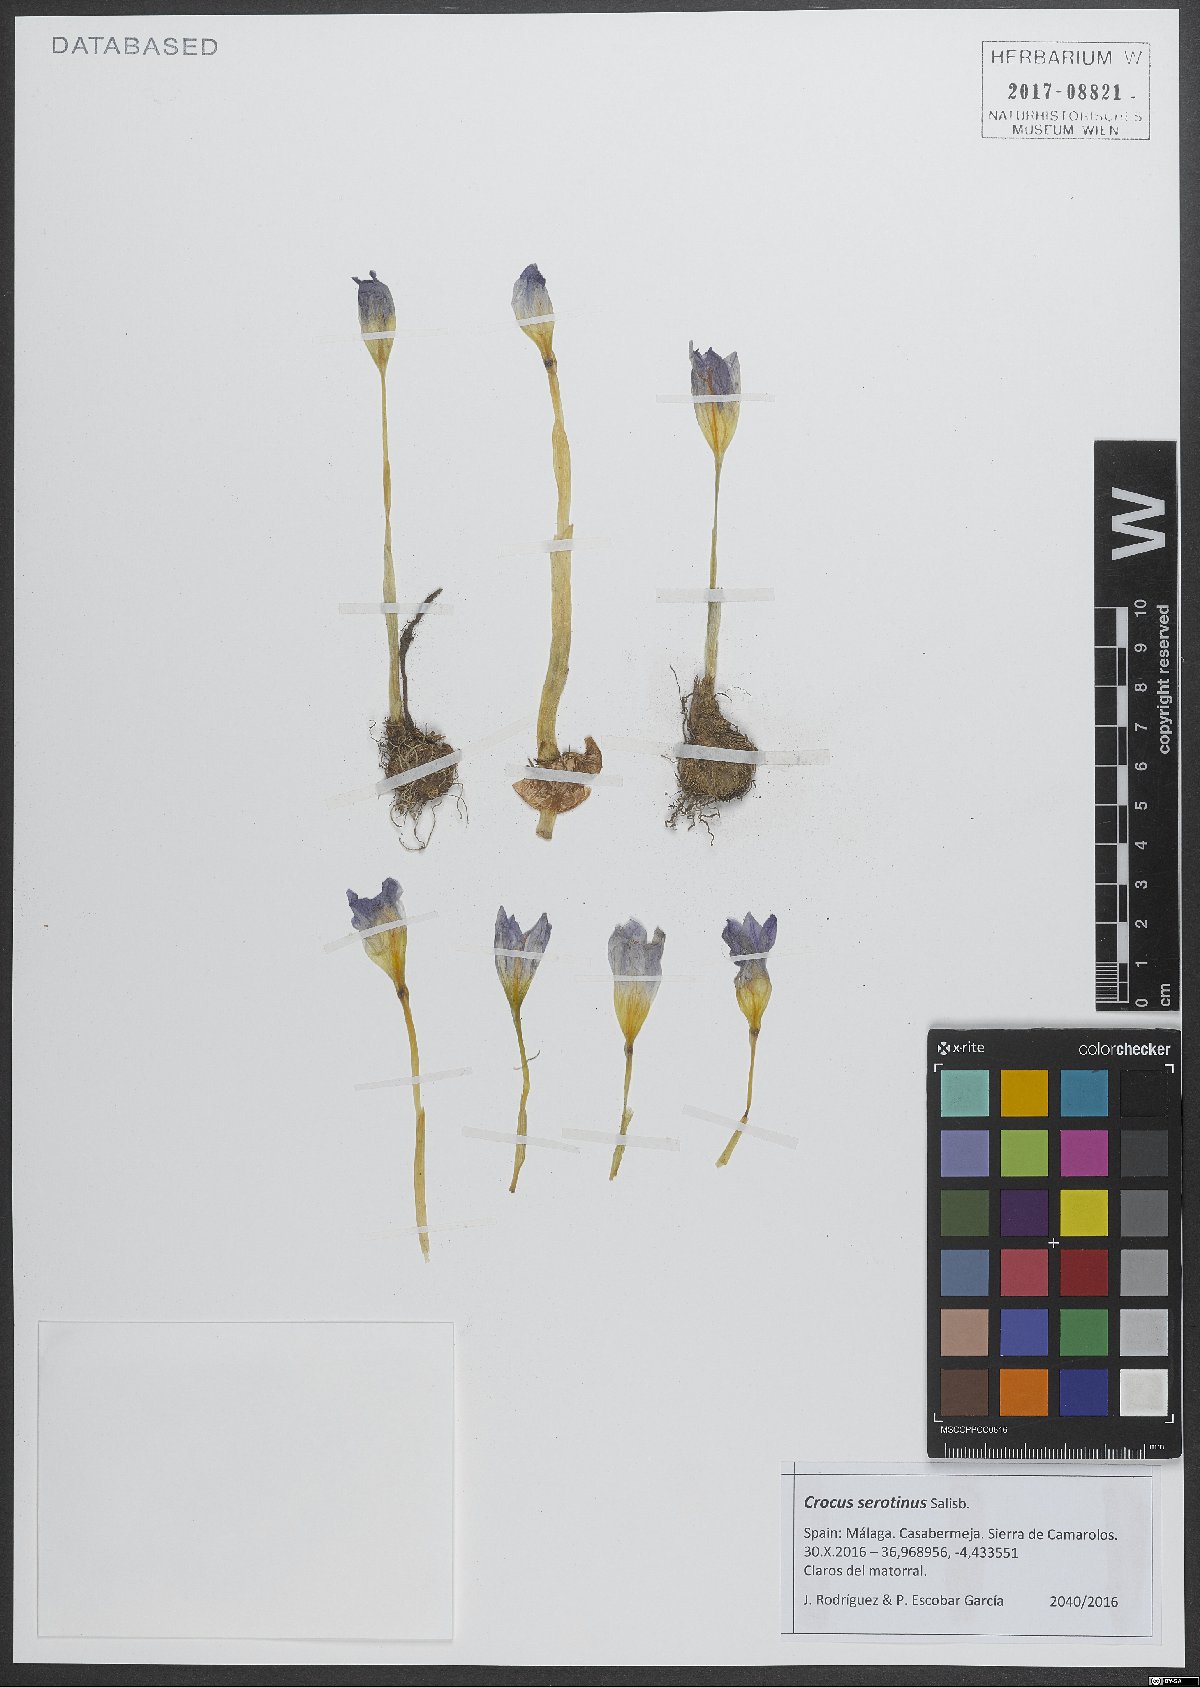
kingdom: Plantae
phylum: Tracheophyta
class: Liliopsida
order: Asparagales
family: Iridaceae
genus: Crocus
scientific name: Crocus autumnalis
